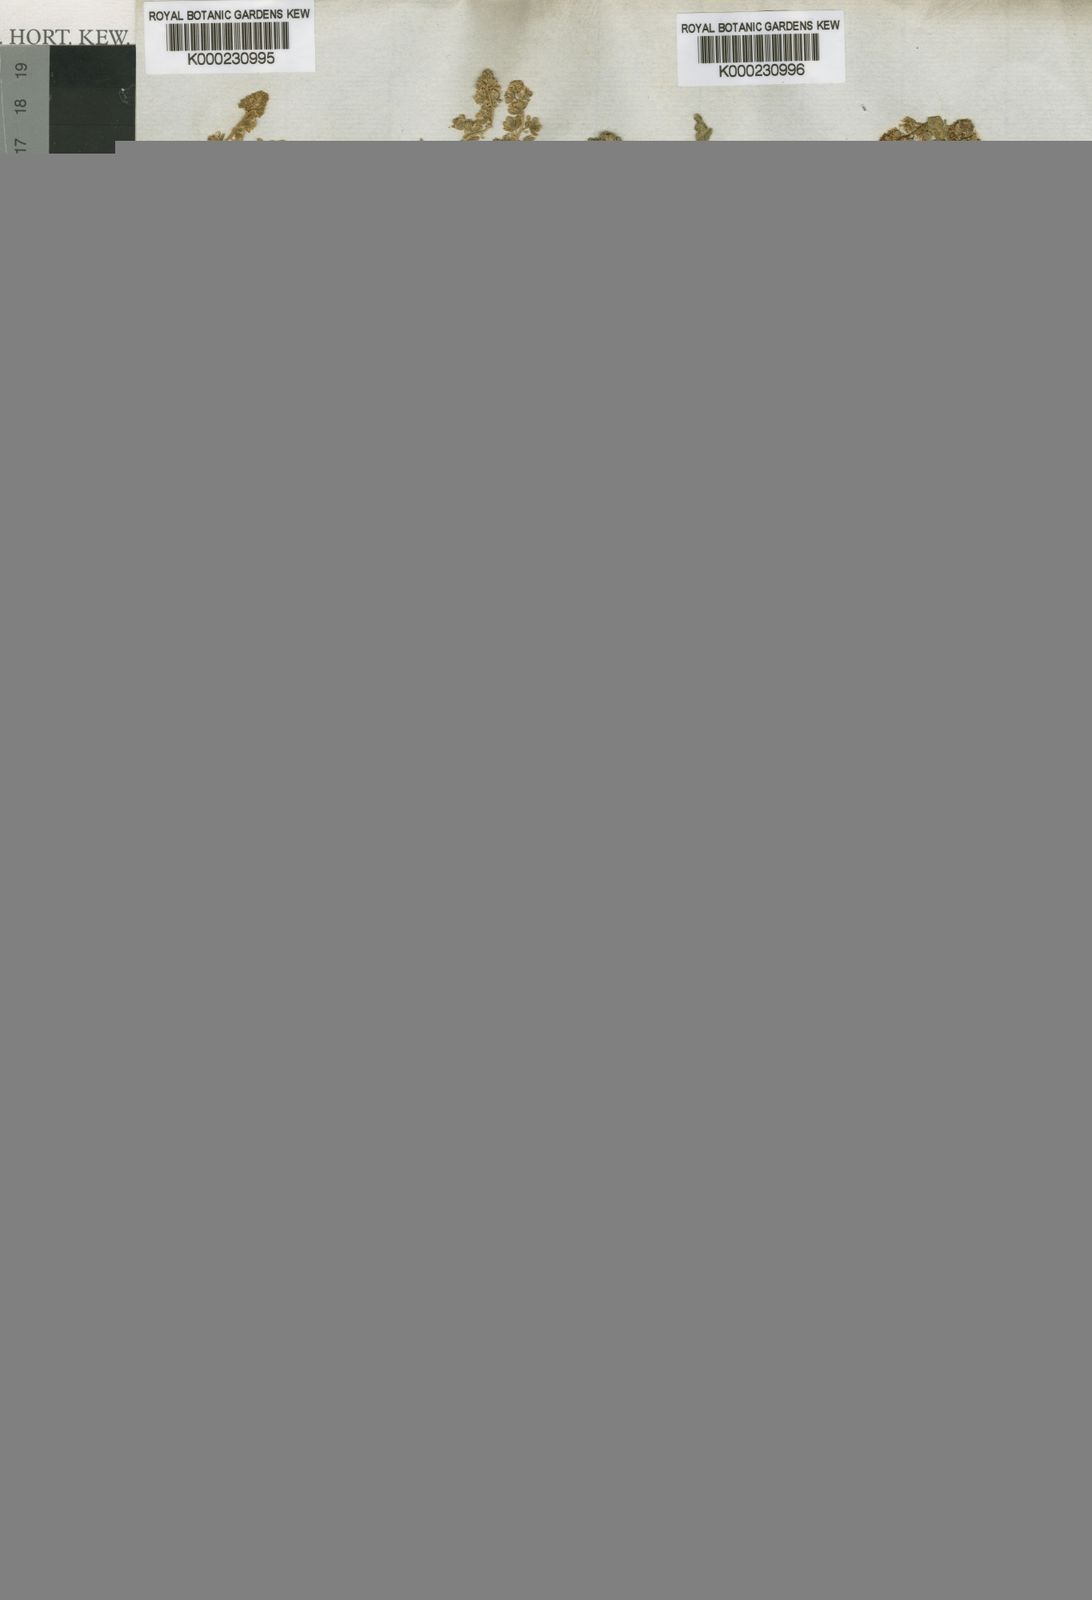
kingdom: Plantae
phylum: Tracheophyta
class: Magnoliopsida
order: Brassicales
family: Resedaceae
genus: Reseda
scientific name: Reseda arabica
